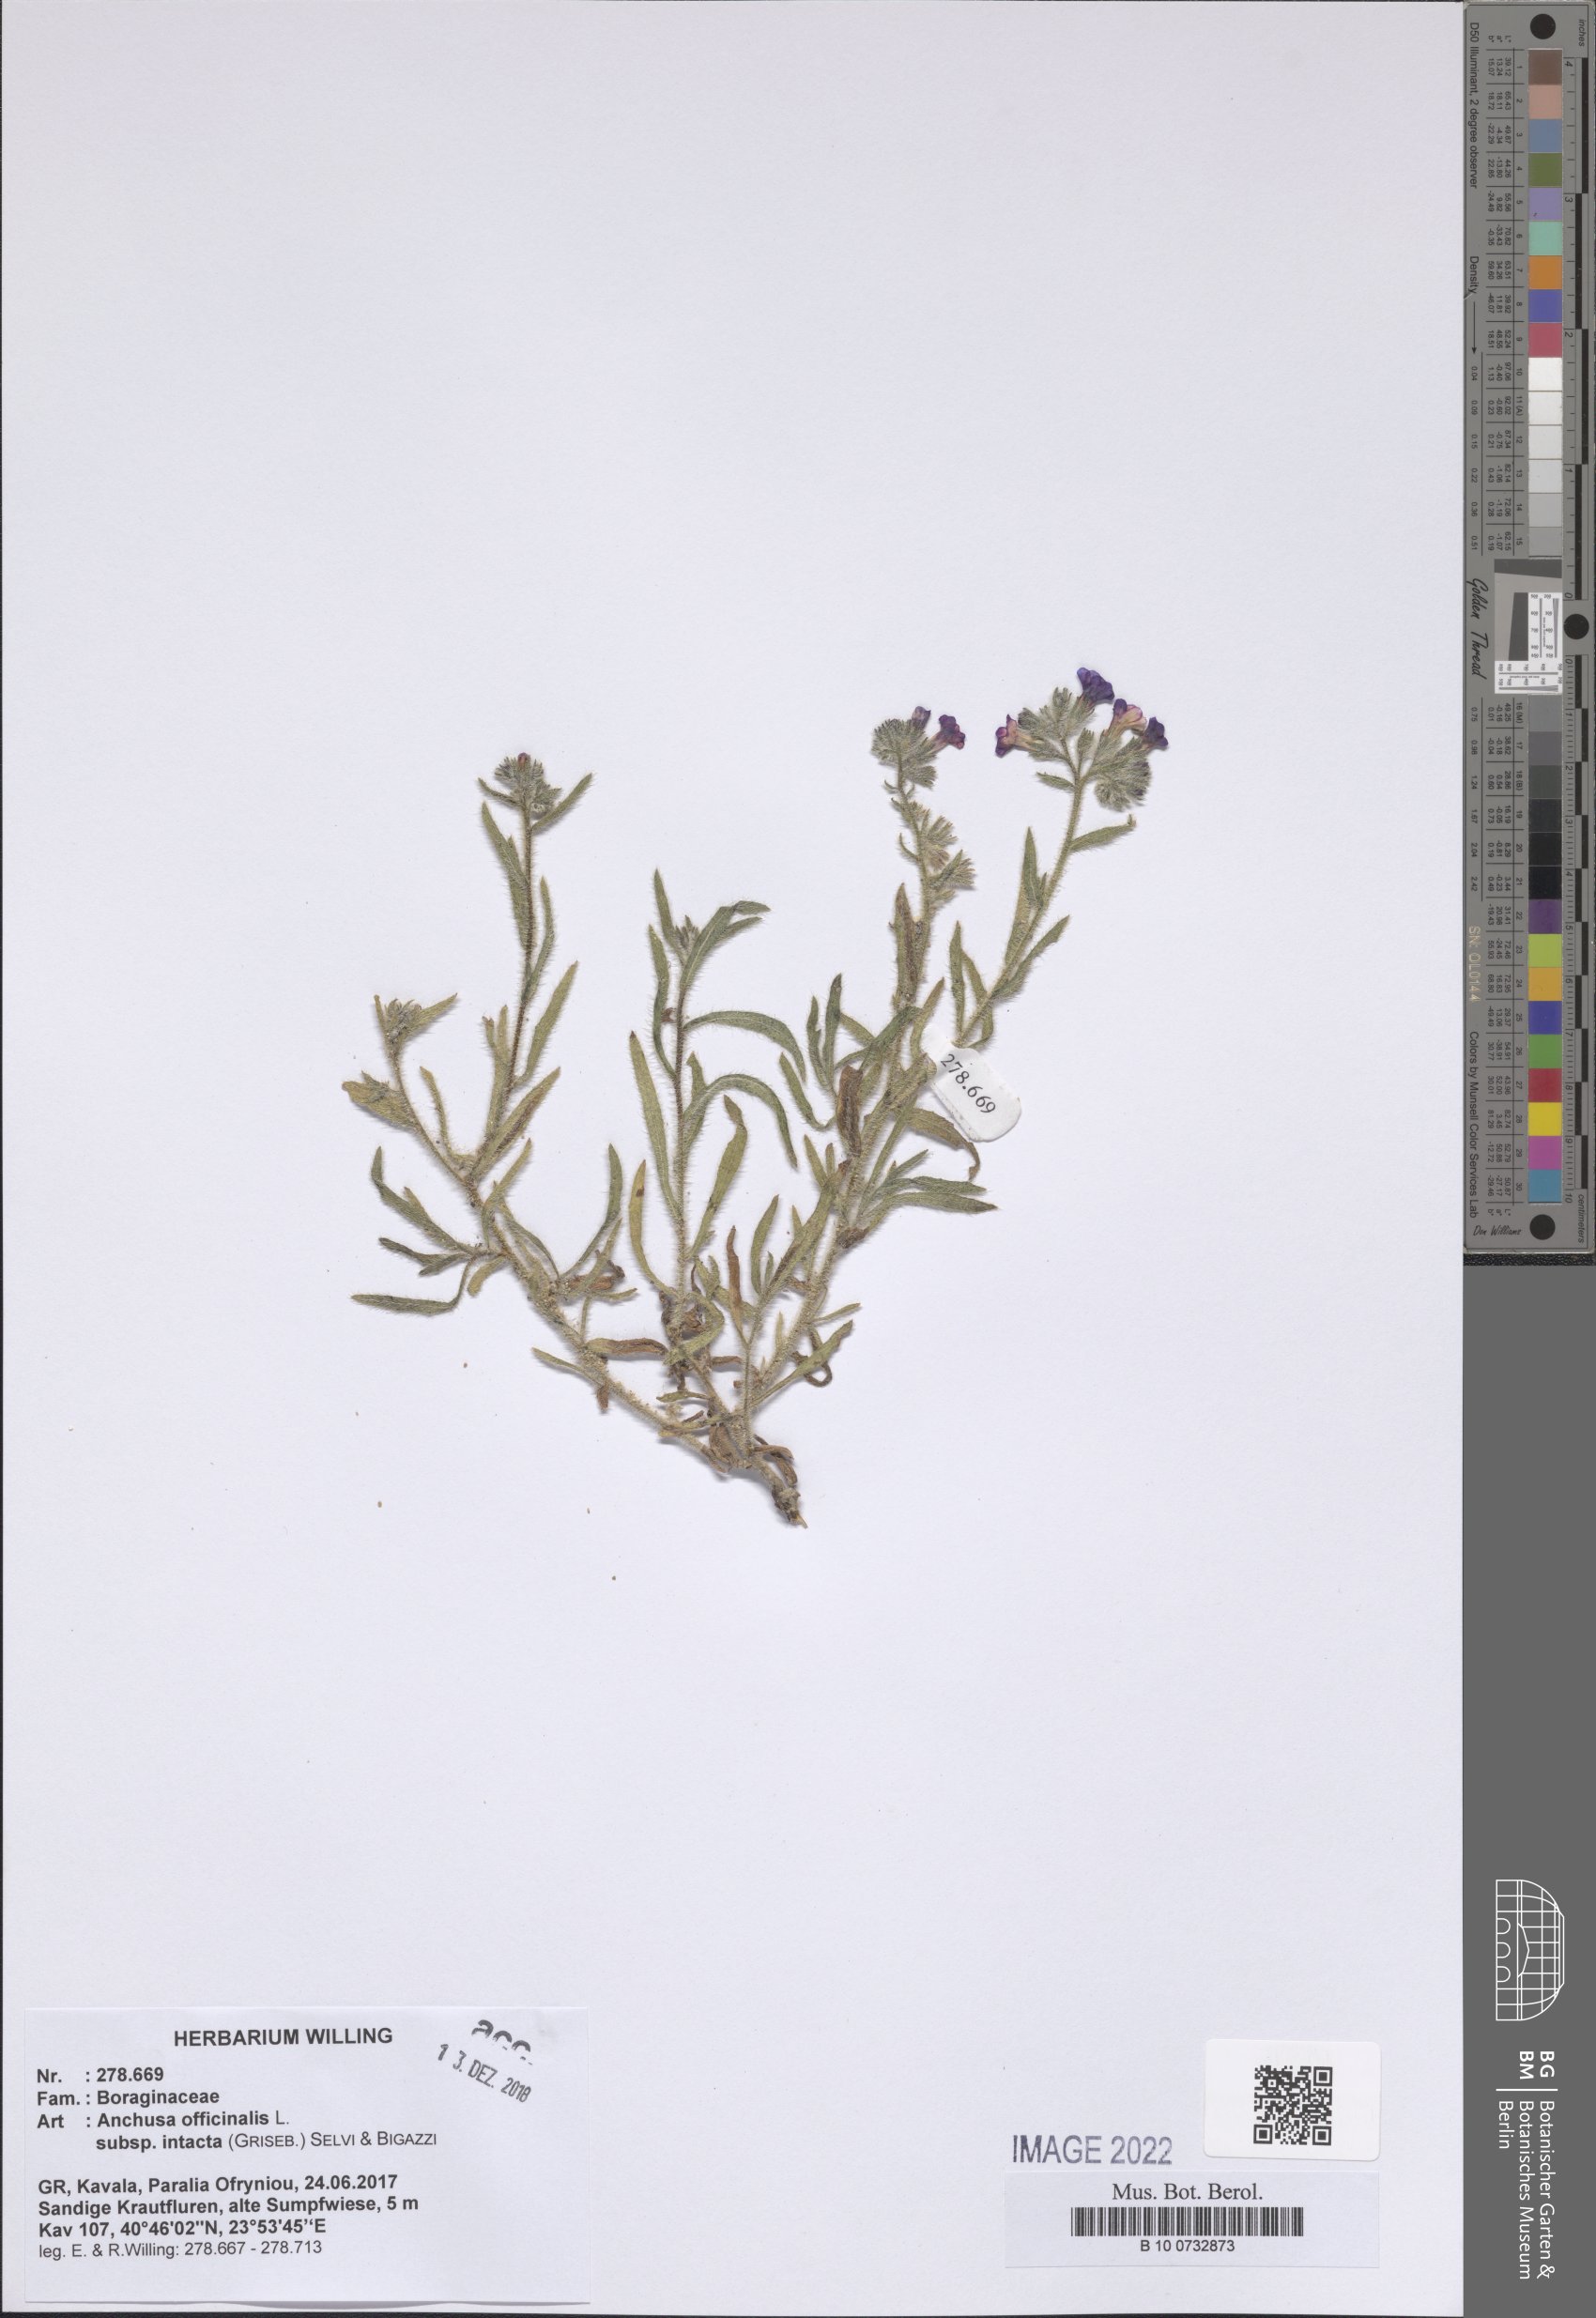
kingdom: Plantae
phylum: Tracheophyta
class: Magnoliopsida
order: Boraginales
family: Boraginaceae
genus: Anchusa
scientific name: Anchusa officinalis
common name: Alkanet
